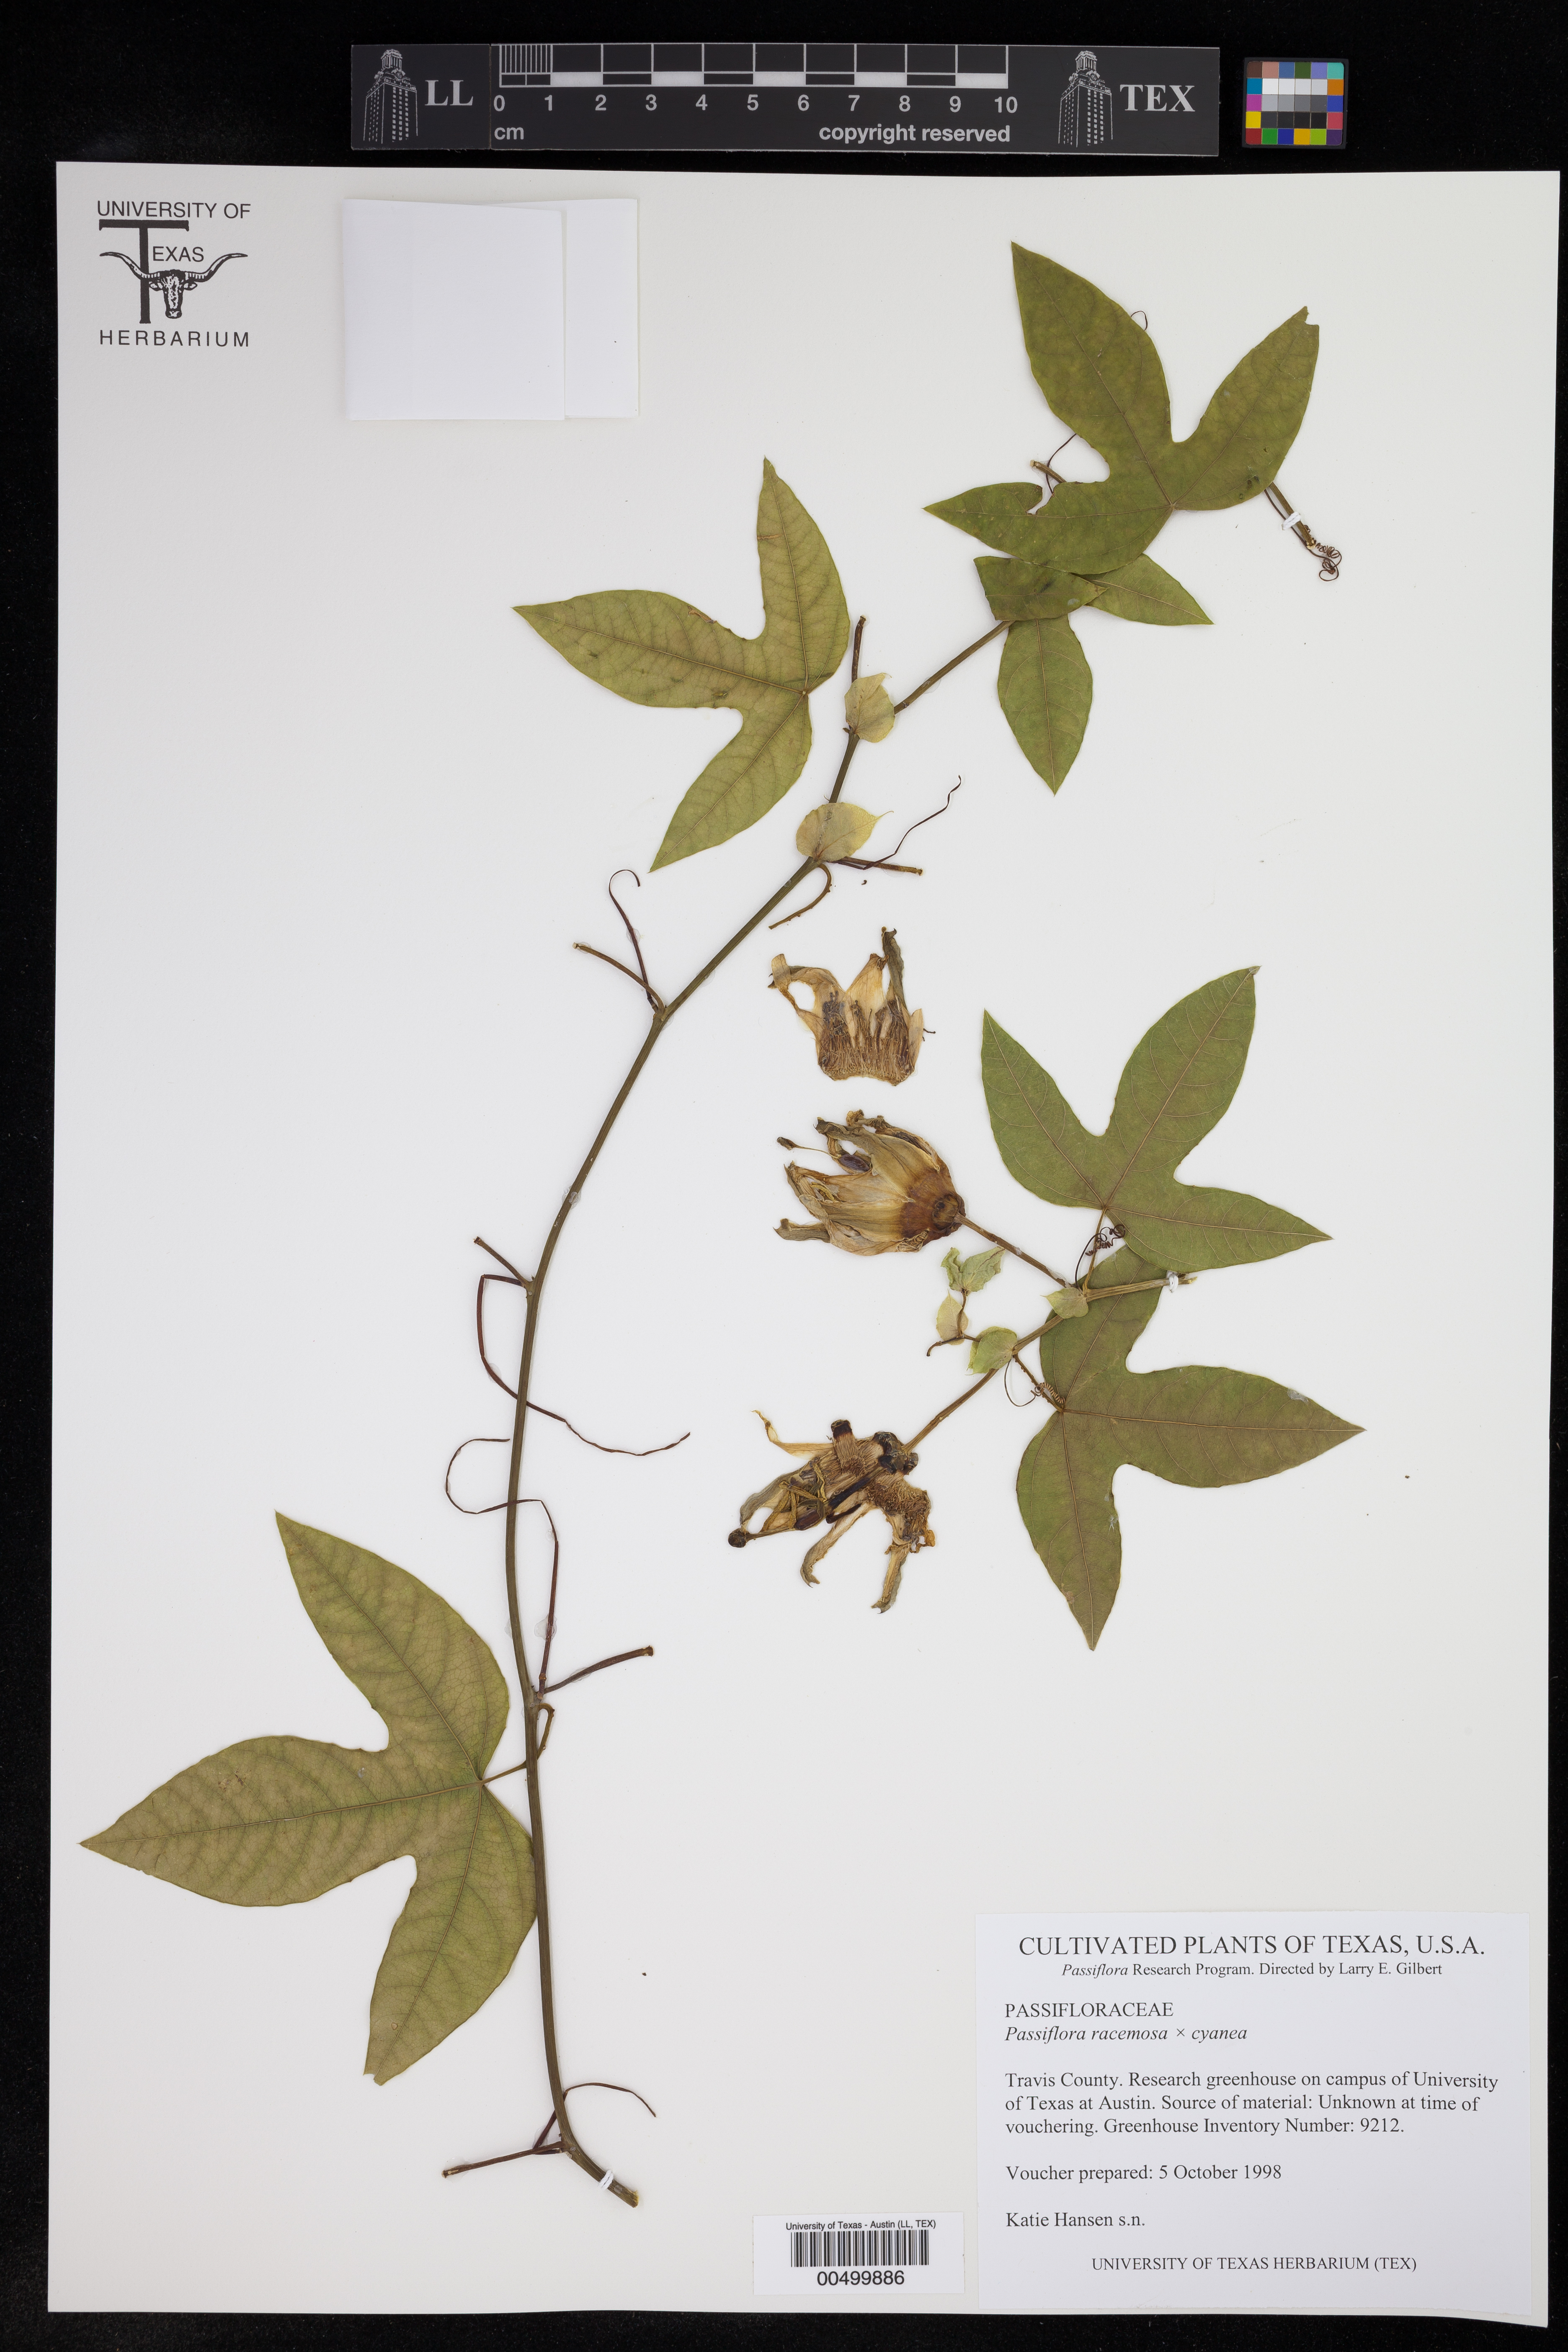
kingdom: Plantae
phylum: Tracheophyta
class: Magnoliopsida
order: Malpighiales
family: Passifloraceae
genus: Passiflora
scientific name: Passiflora
